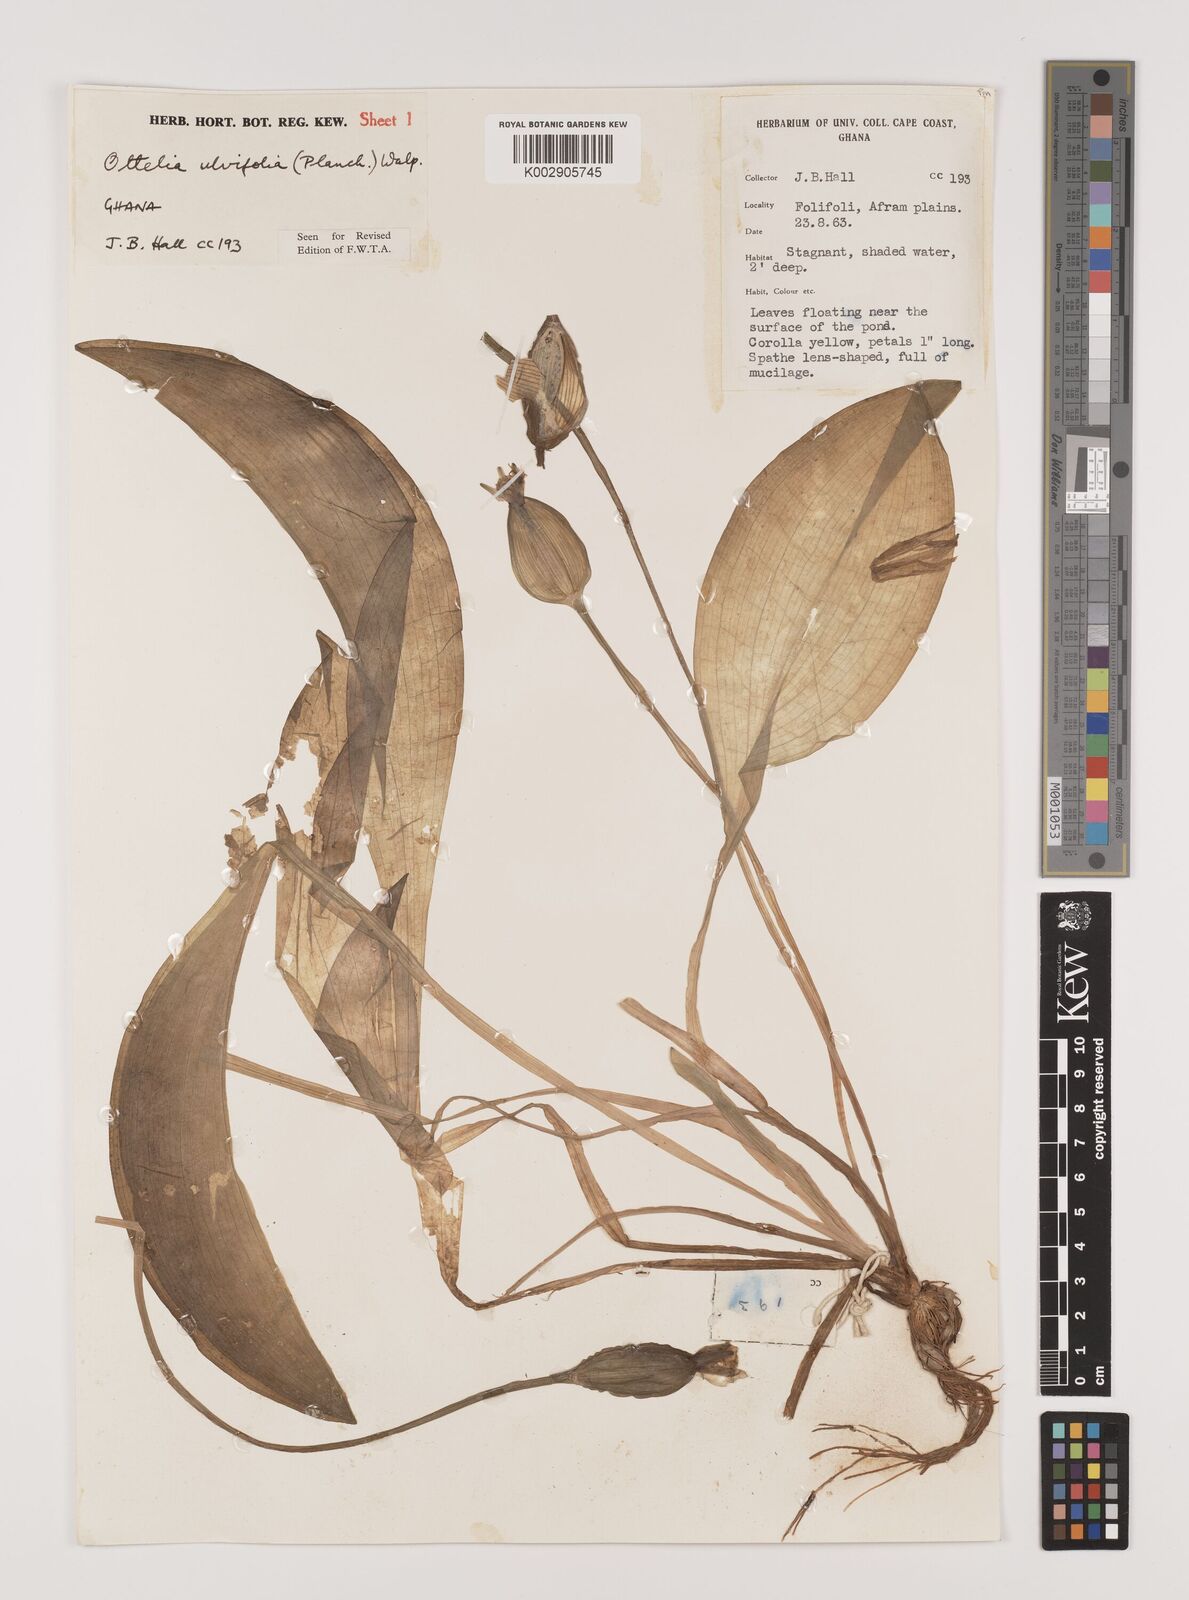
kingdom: Plantae
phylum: Tracheophyta
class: Liliopsida
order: Alismatales
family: Hydrocharitaceae
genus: Ottelia
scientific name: Ottelia ulvifolia
